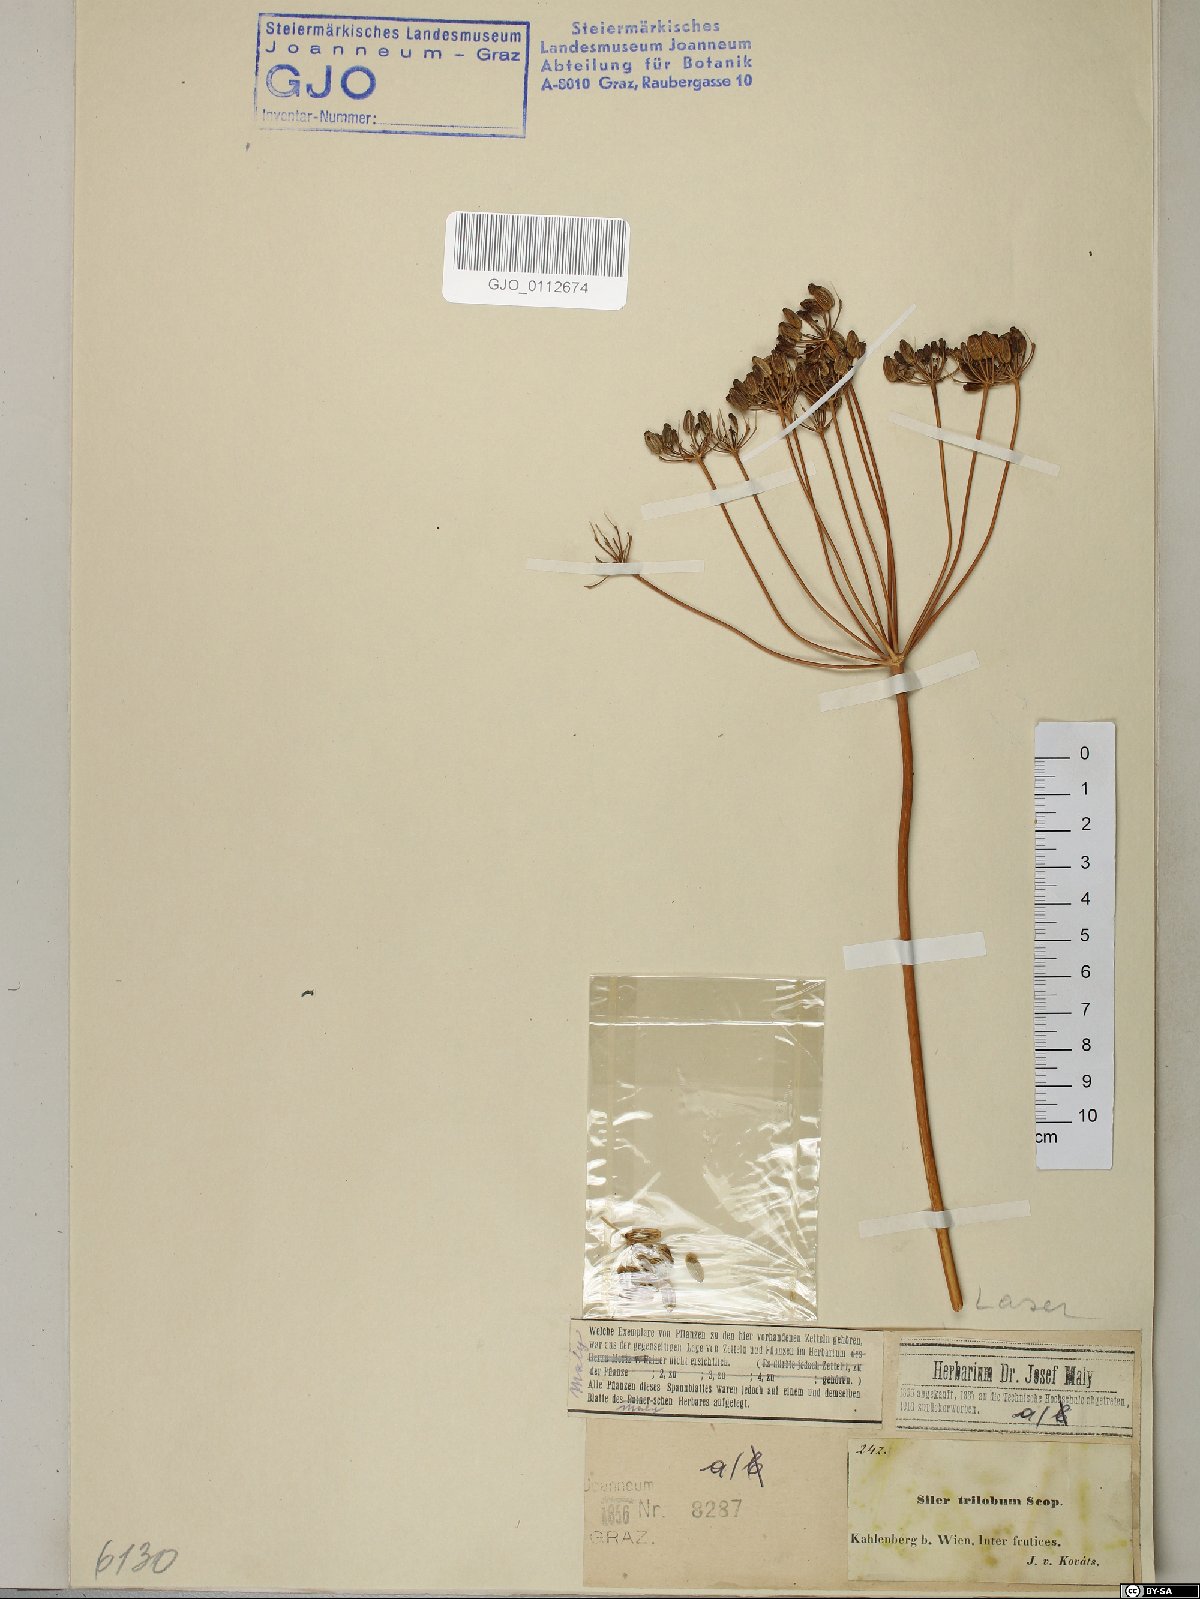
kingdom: Plantae
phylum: Tracheophyta
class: Magnoliopsida
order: Apiales
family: Apiaceae
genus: Laser
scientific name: Laser trilobum
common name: Laser
